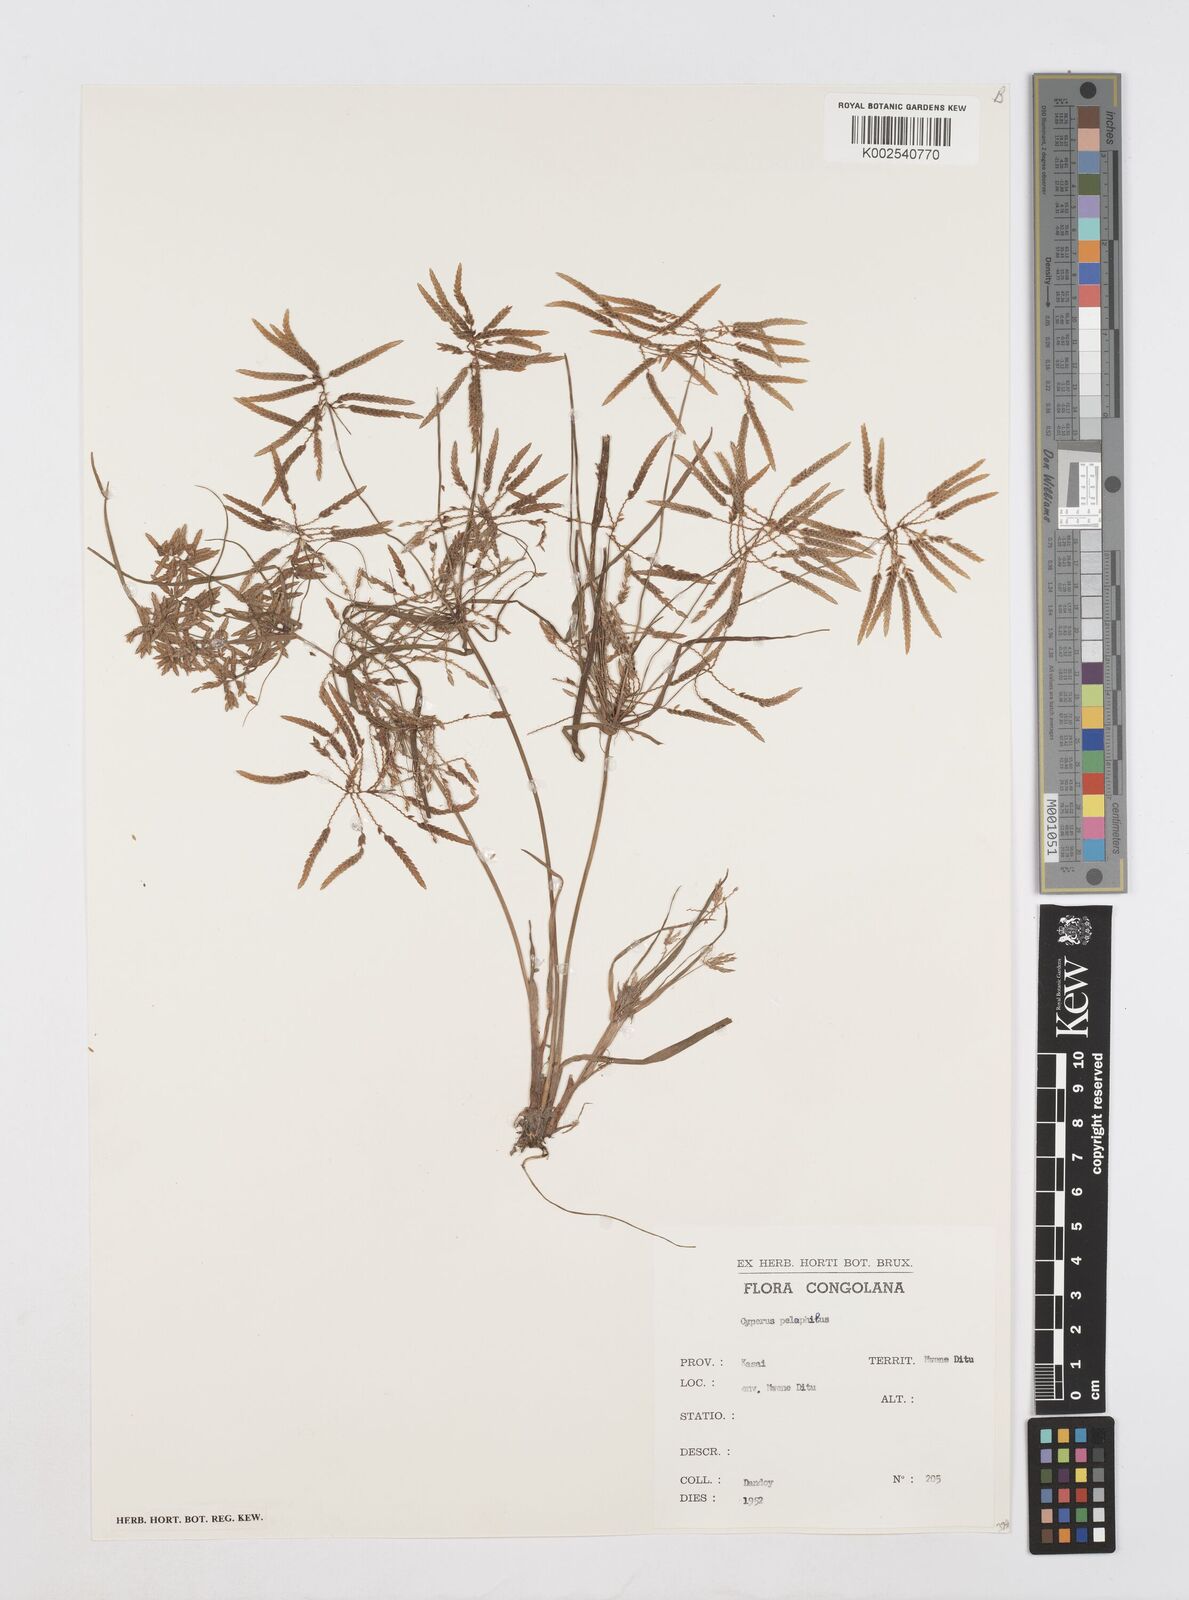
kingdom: Plantae
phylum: Tracheophyta
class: Liliopsida
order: Poales
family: Cyperaceae
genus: Cyperus
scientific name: Cyperus pelophilus
